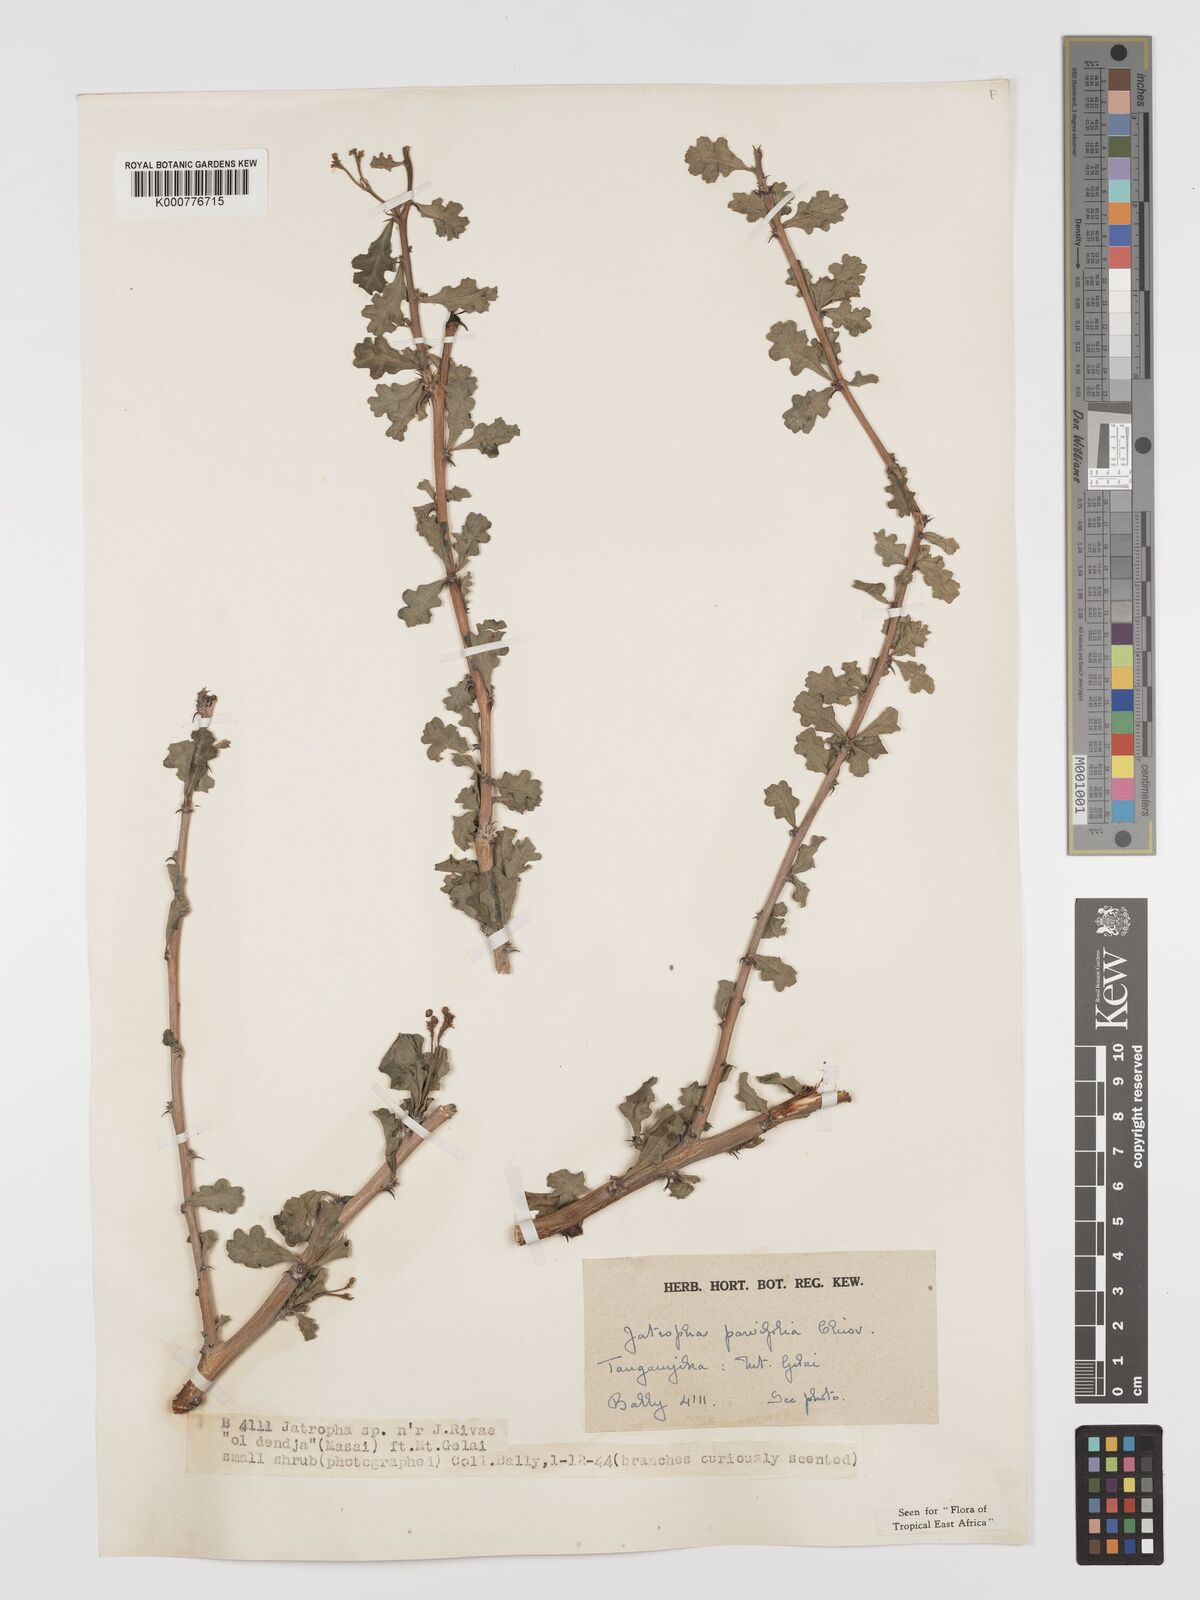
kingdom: Plantae
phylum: Tracheophyta
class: Magnoliopsida
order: Malpighiales
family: Euphorbiaceae
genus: Jatropha
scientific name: Jatropha rivae
